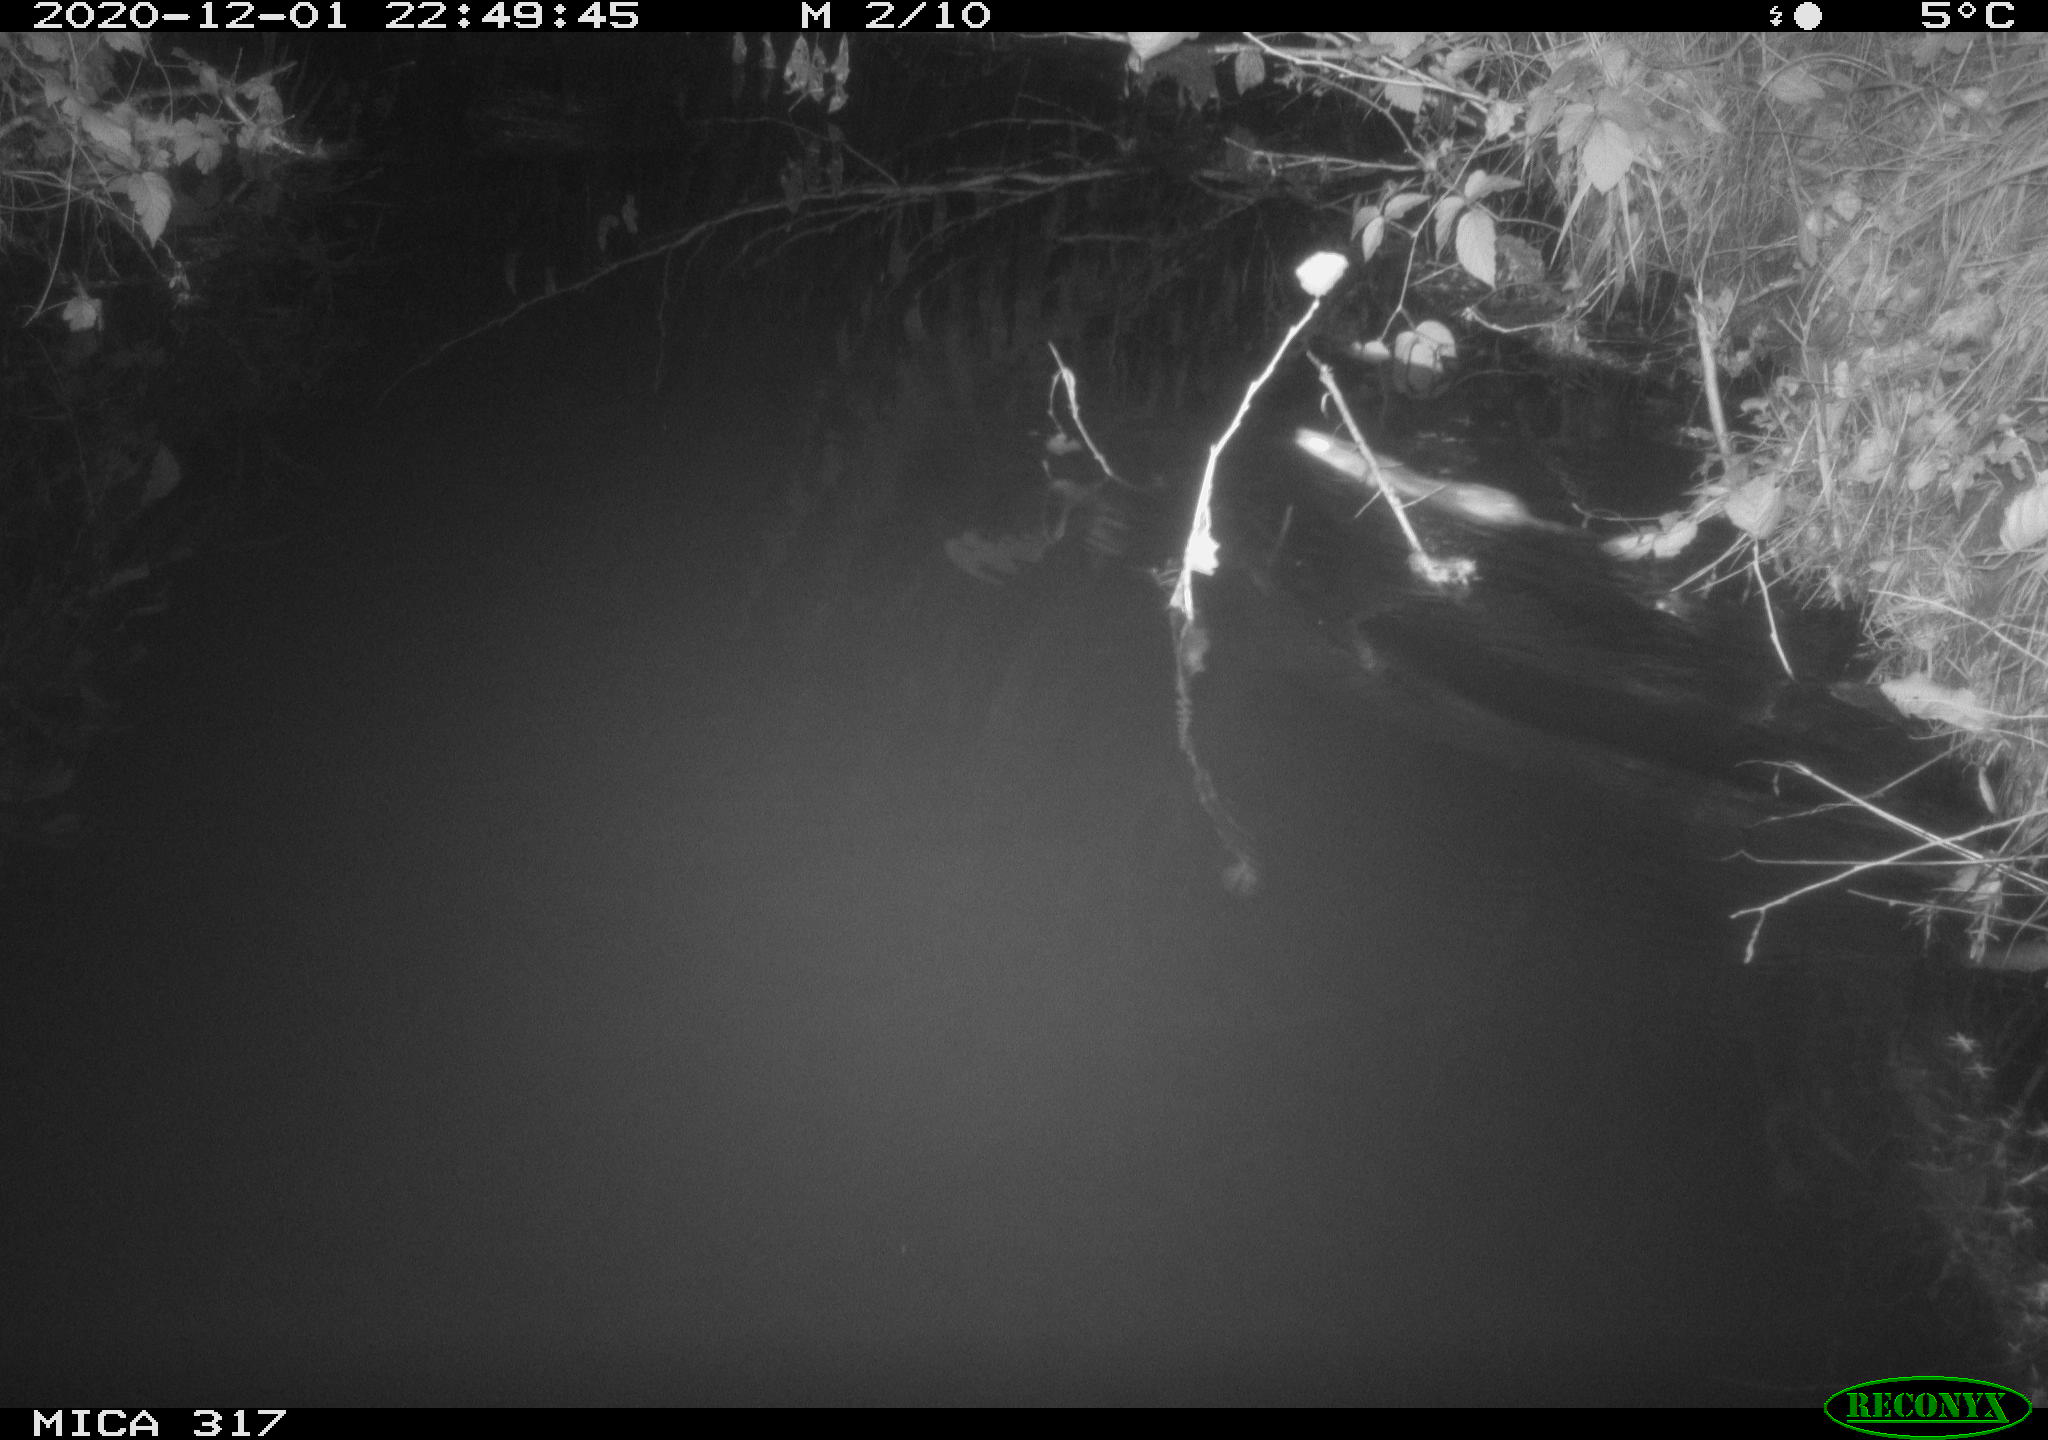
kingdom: Animalia
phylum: Chordata
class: Mammalia
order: Rodentia
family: Muridae
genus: Rattus
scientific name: Rattus norvegicus
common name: Brown rat
